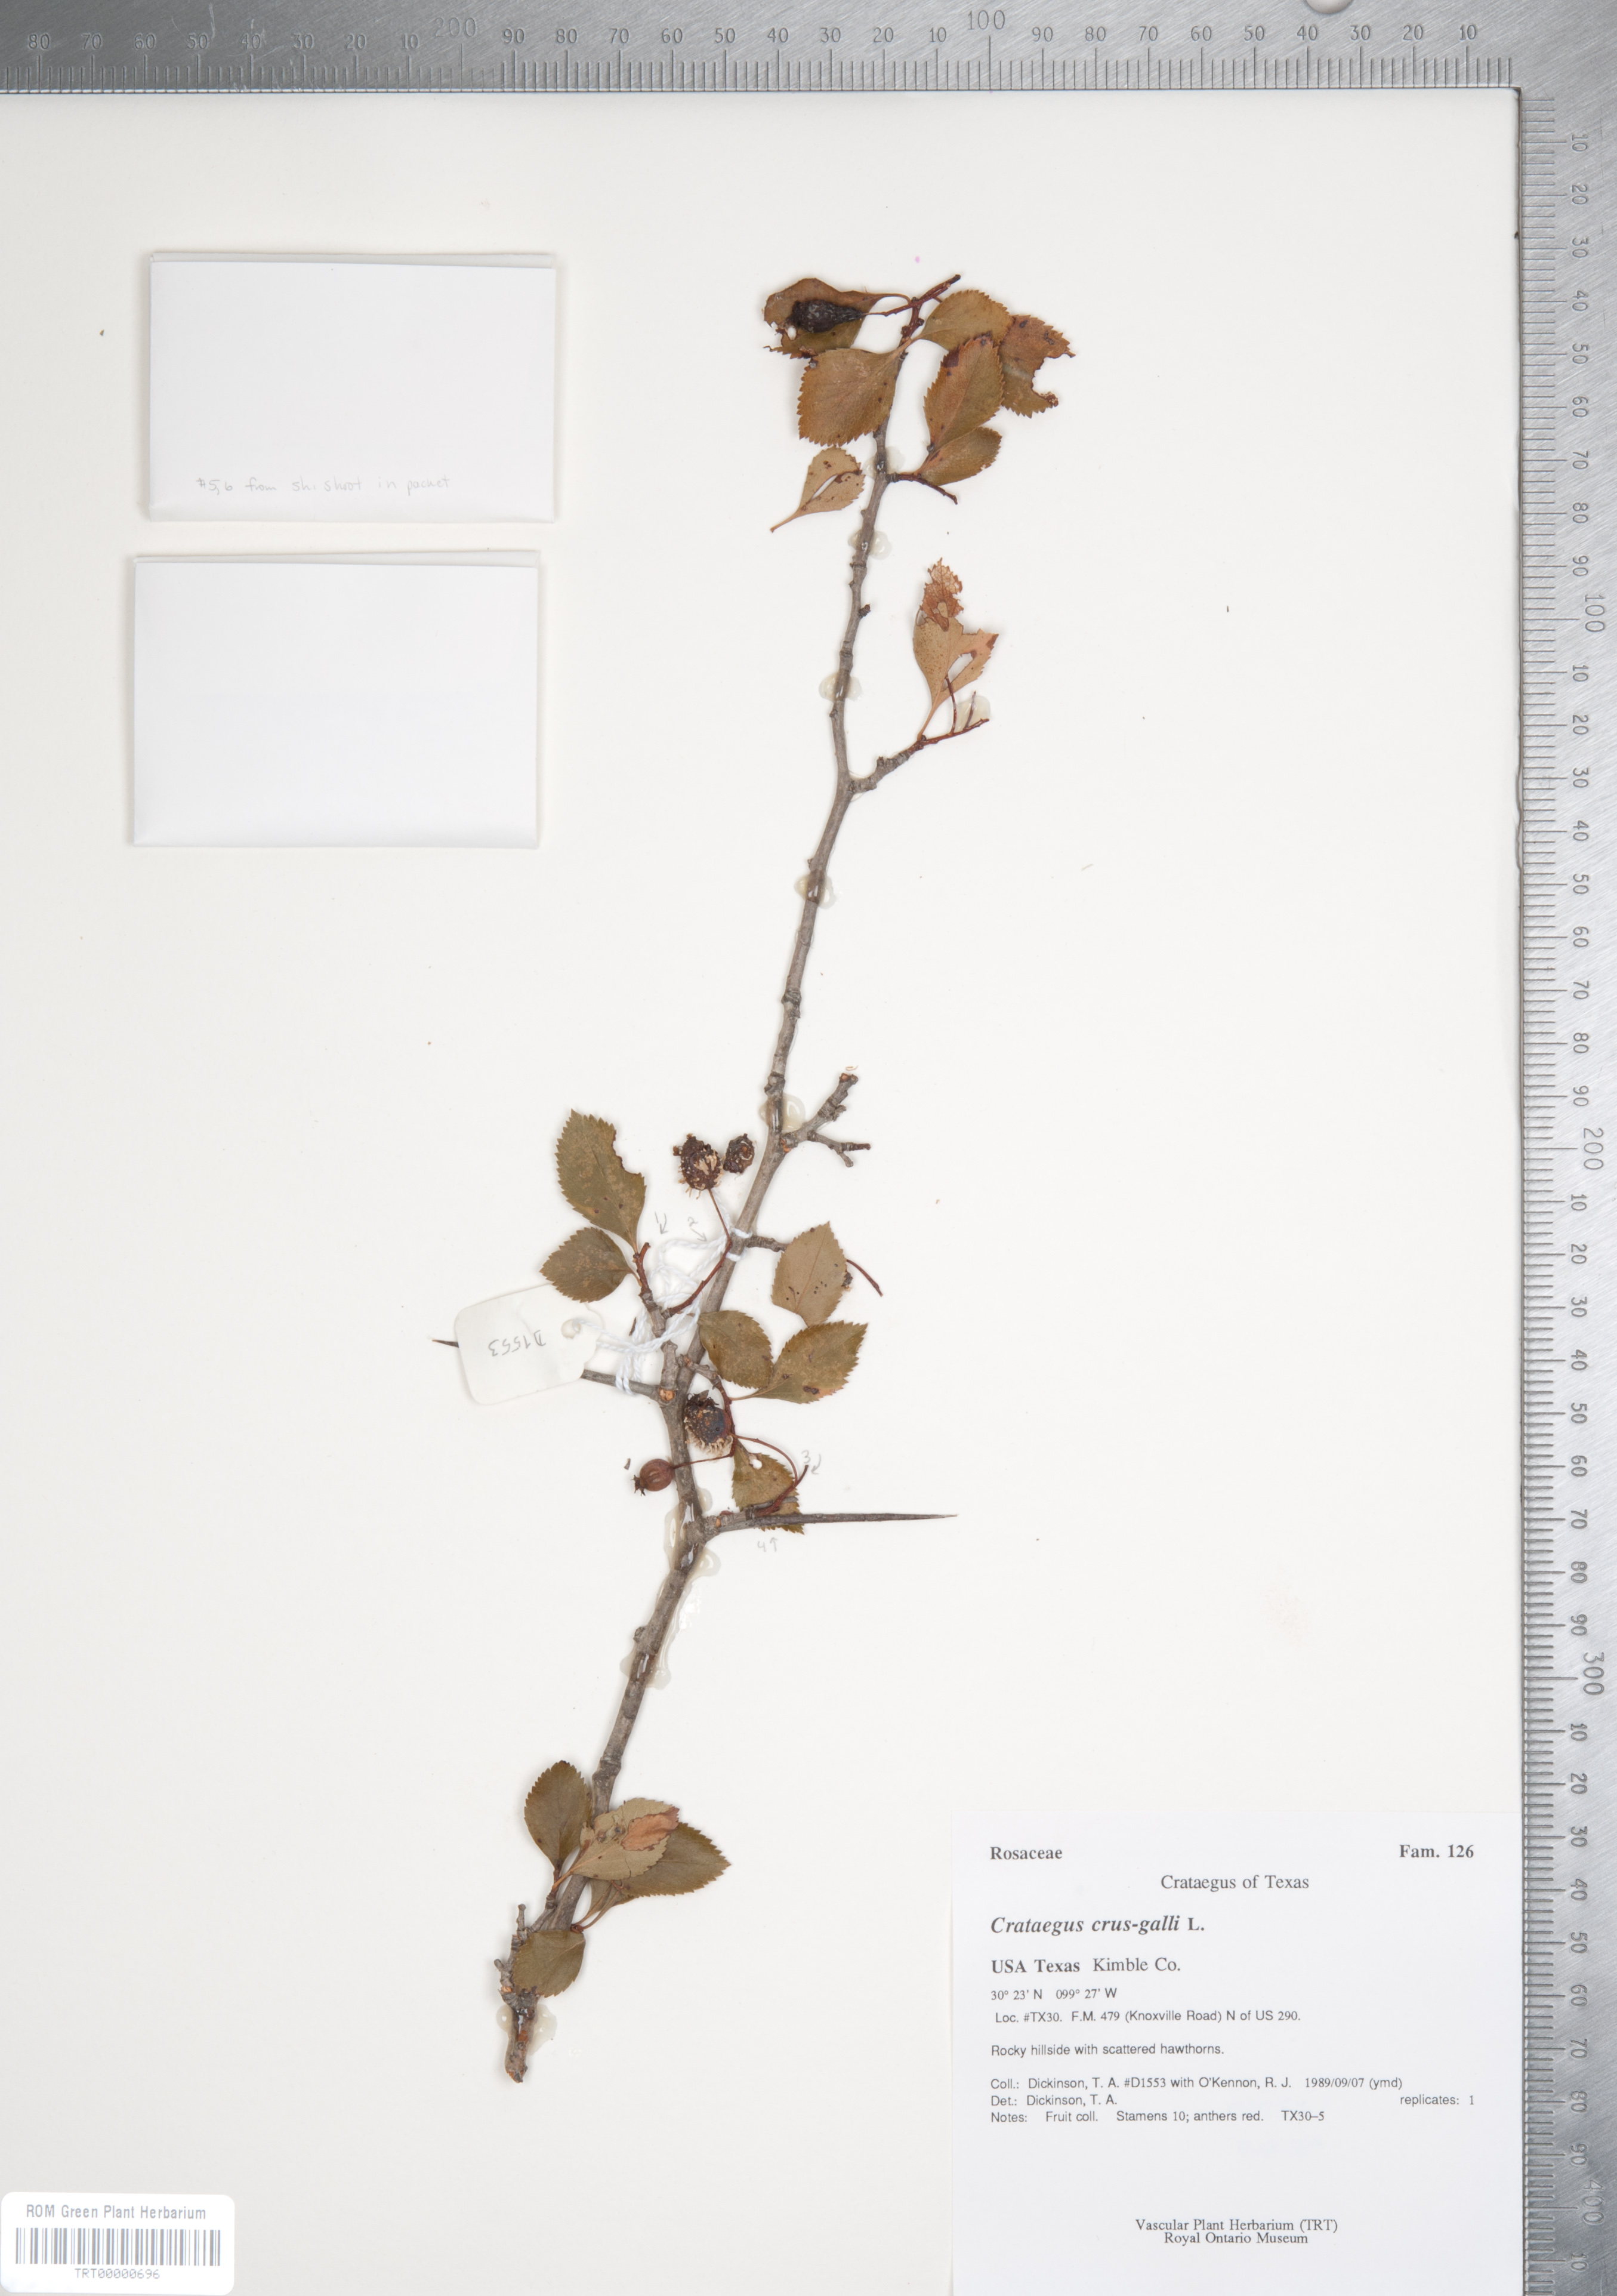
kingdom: Plantae
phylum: Tracheophyta
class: Magnoliopsida
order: Rosales
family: Rosaceae
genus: Crataegus
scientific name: Crataegus crus-galli
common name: Cockspurthorn
